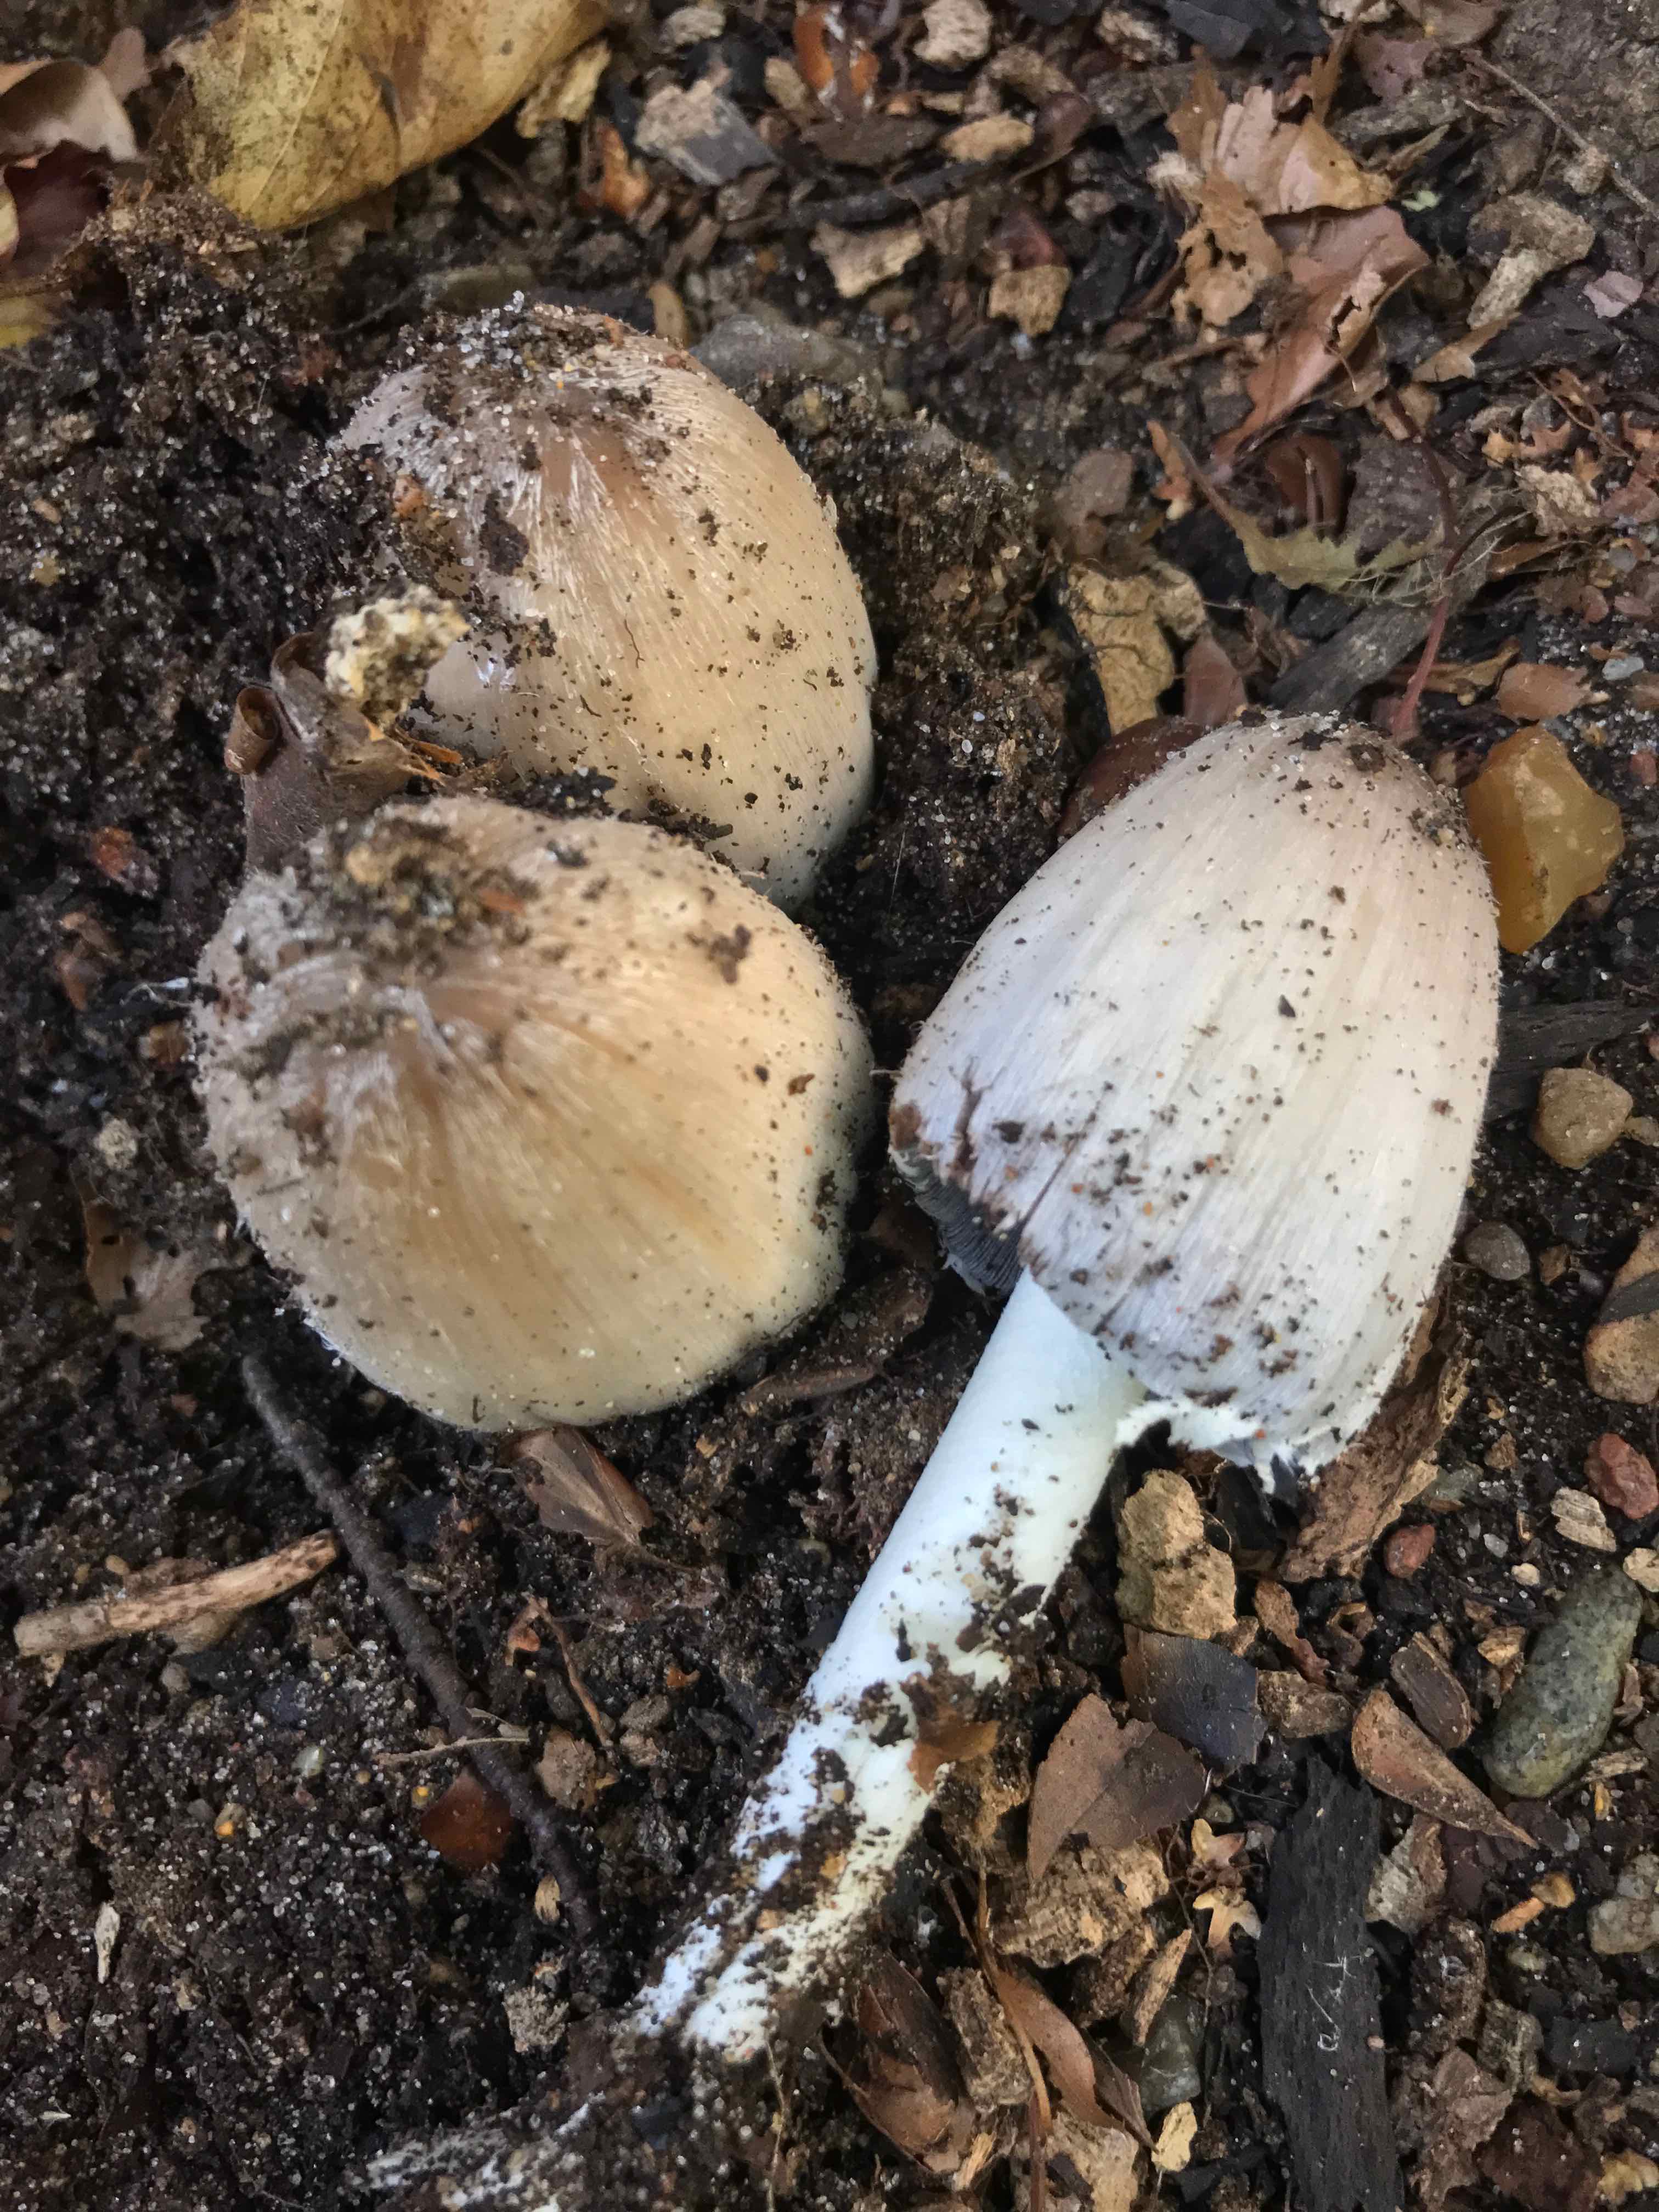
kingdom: Fungi
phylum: Basidiomycota
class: Agaricomycetes
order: Agaricales
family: Psathyrellaceae
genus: Coprinopsis
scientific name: Coprinopsis insignis
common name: stor blækhat
